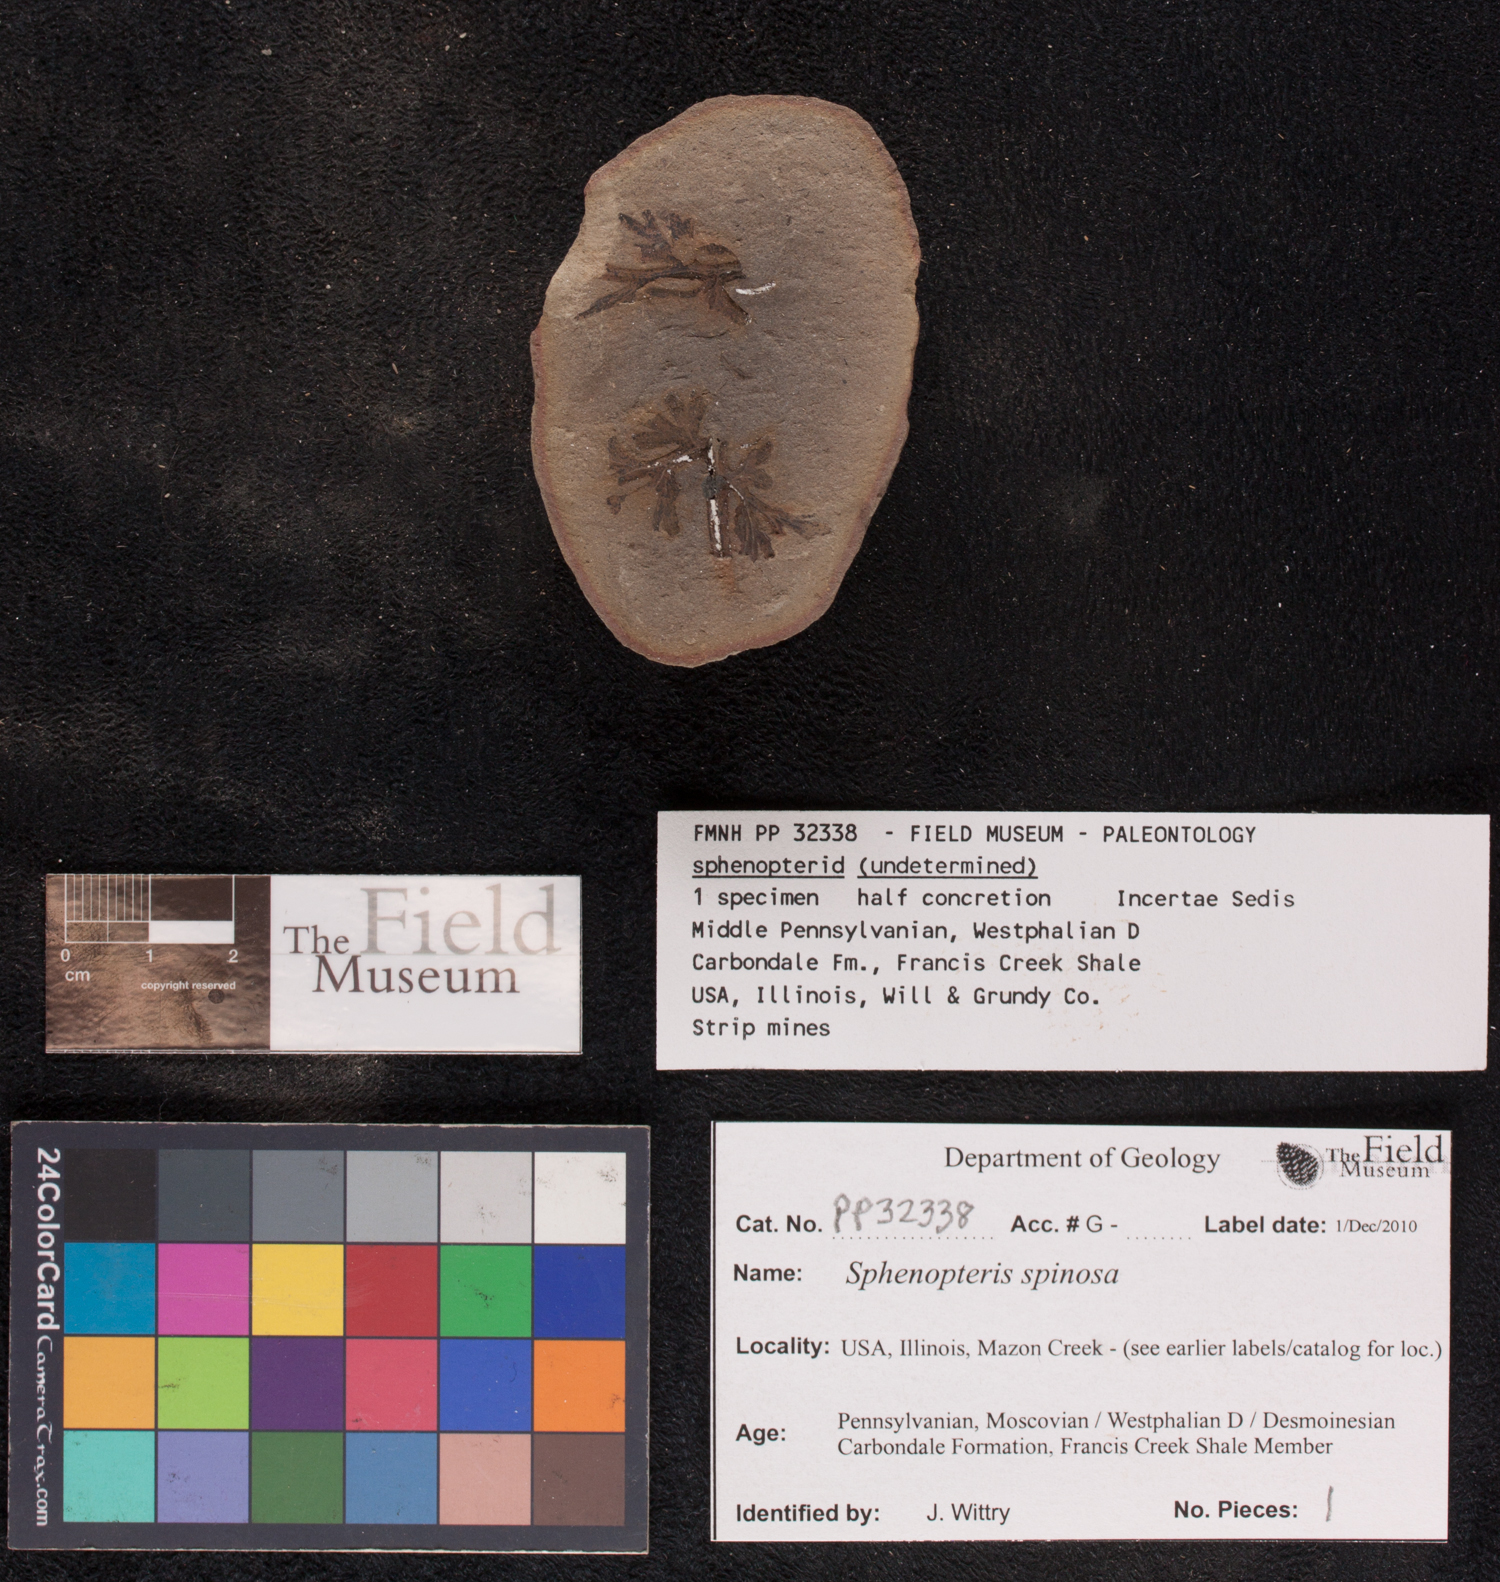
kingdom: Plantae
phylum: Tracheophyta
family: Lyginopteridaceae
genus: Sphenopteris
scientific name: Sphenopteris
